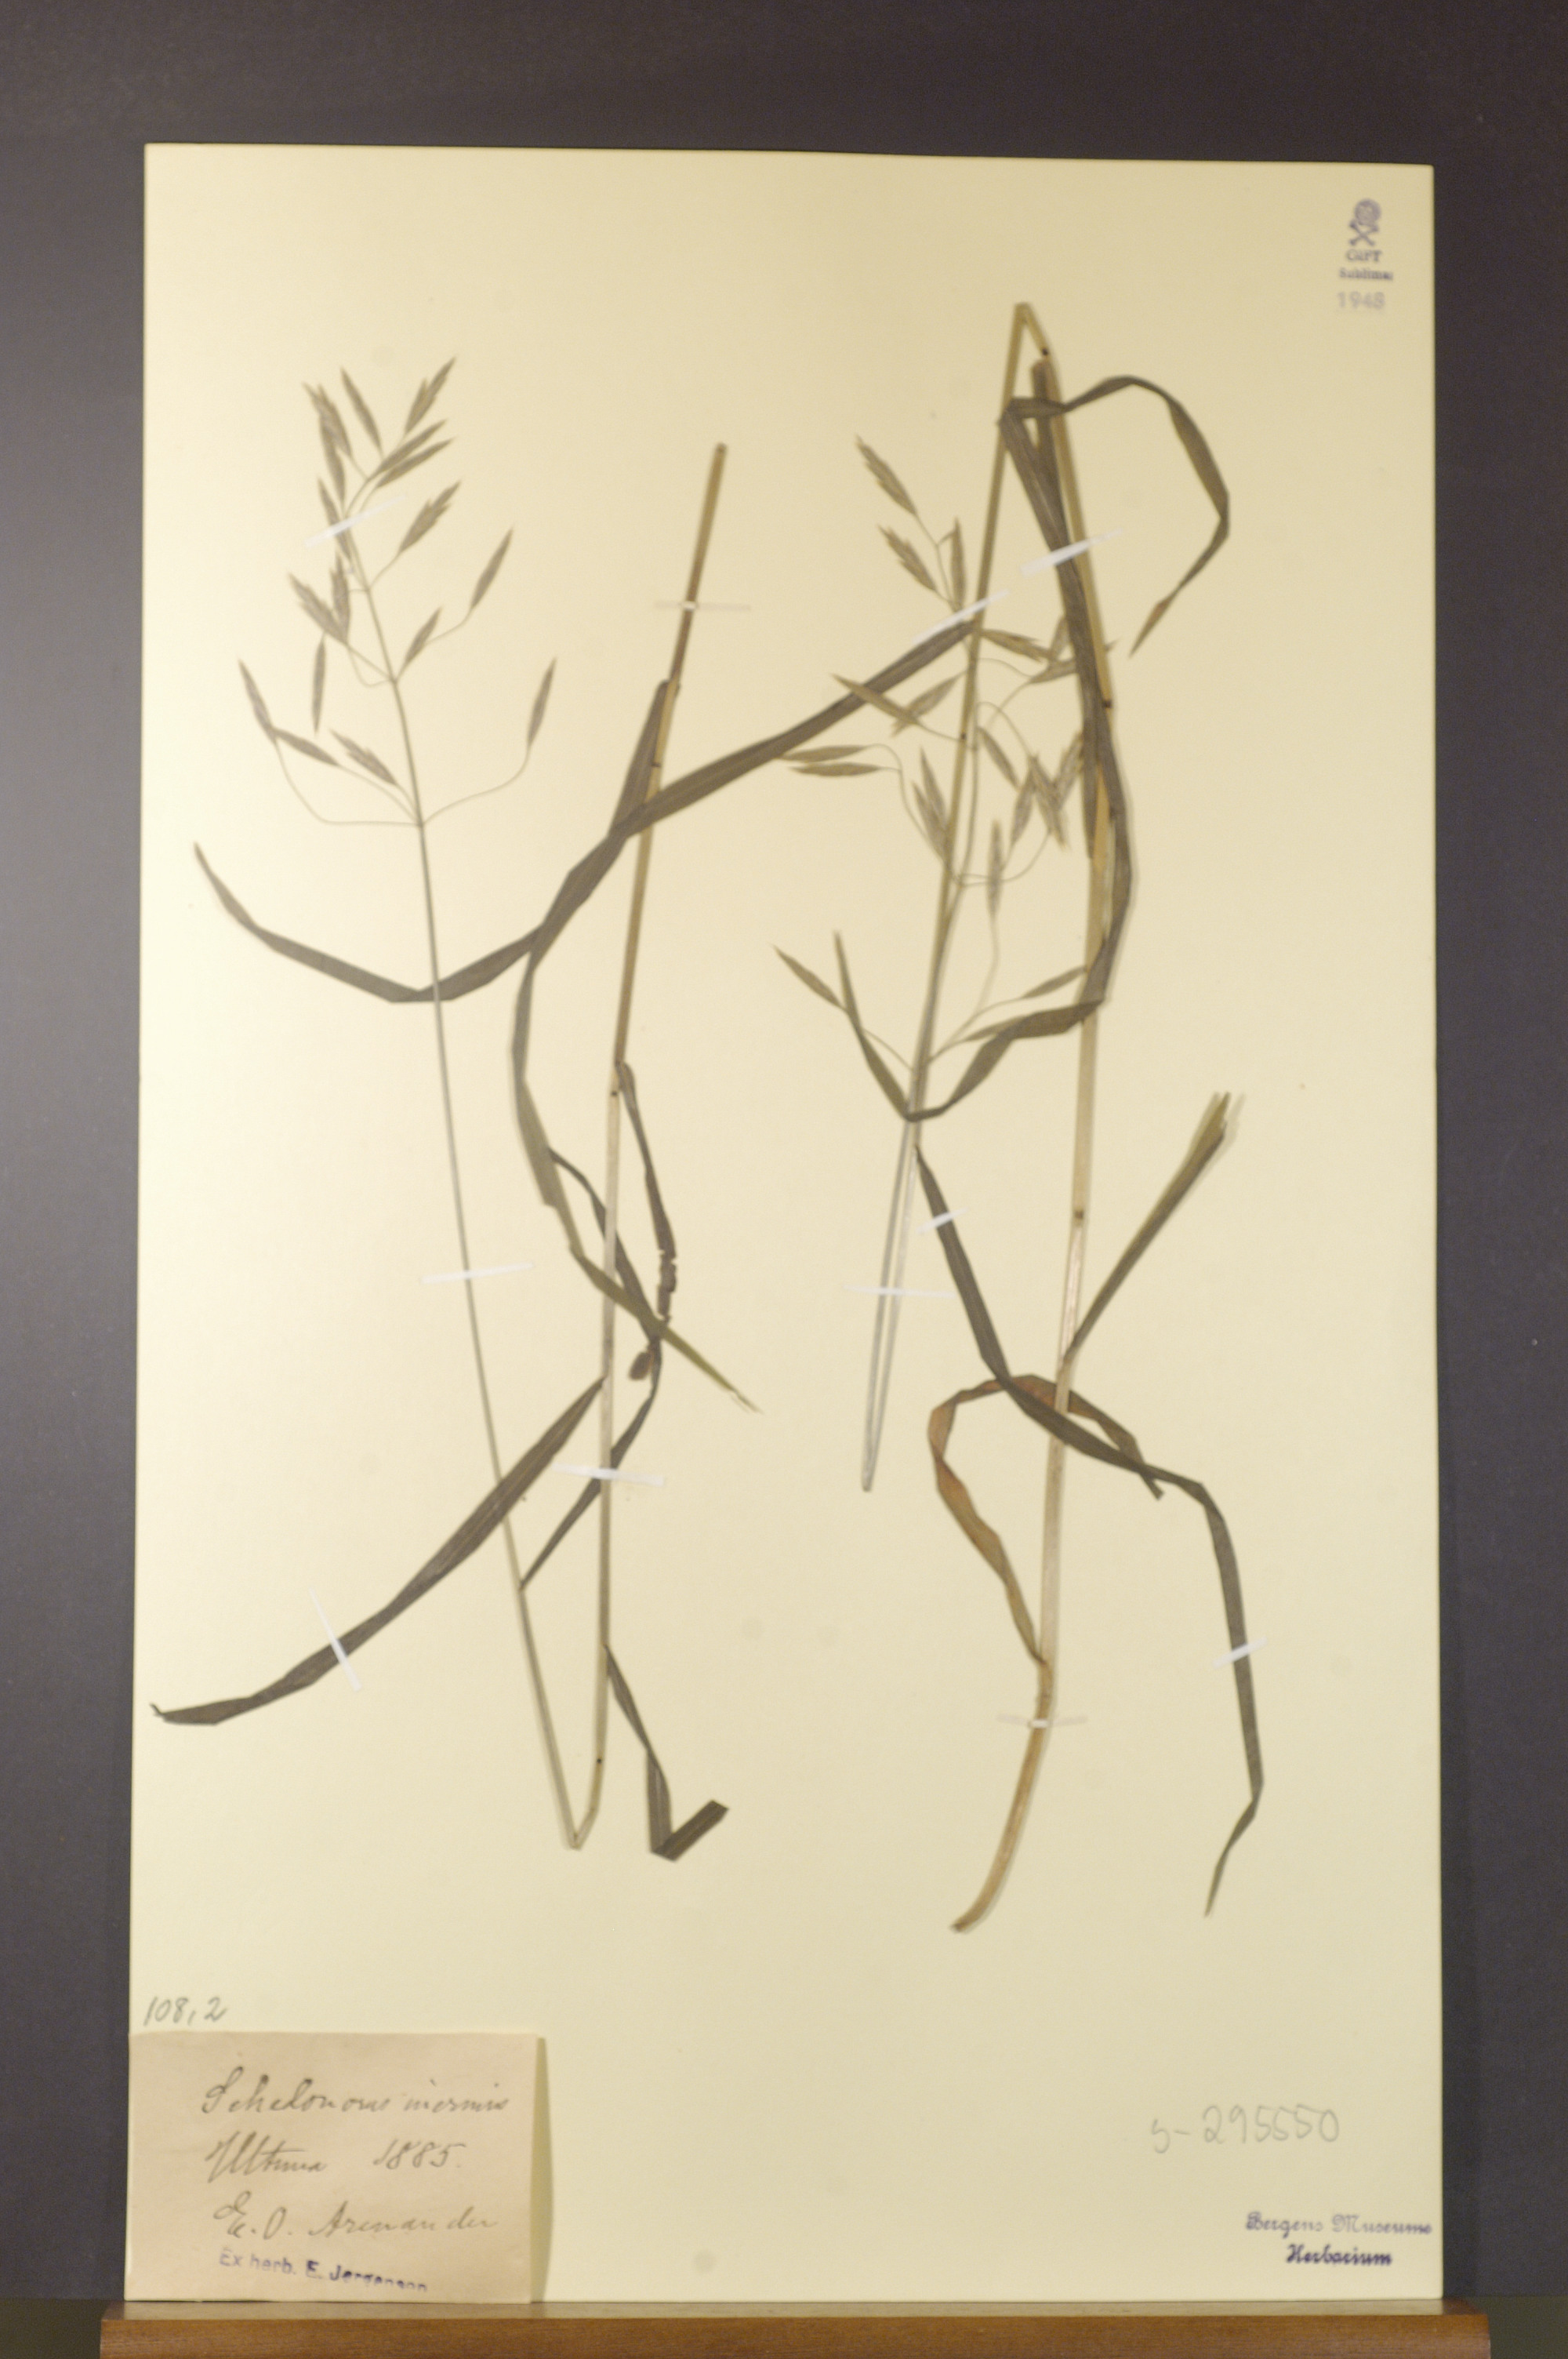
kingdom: Plantae
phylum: Tracheophyta
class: Liliopsida
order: Poales
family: Poaceae
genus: Bromus
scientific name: Bromus inermis
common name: Smooth brome
